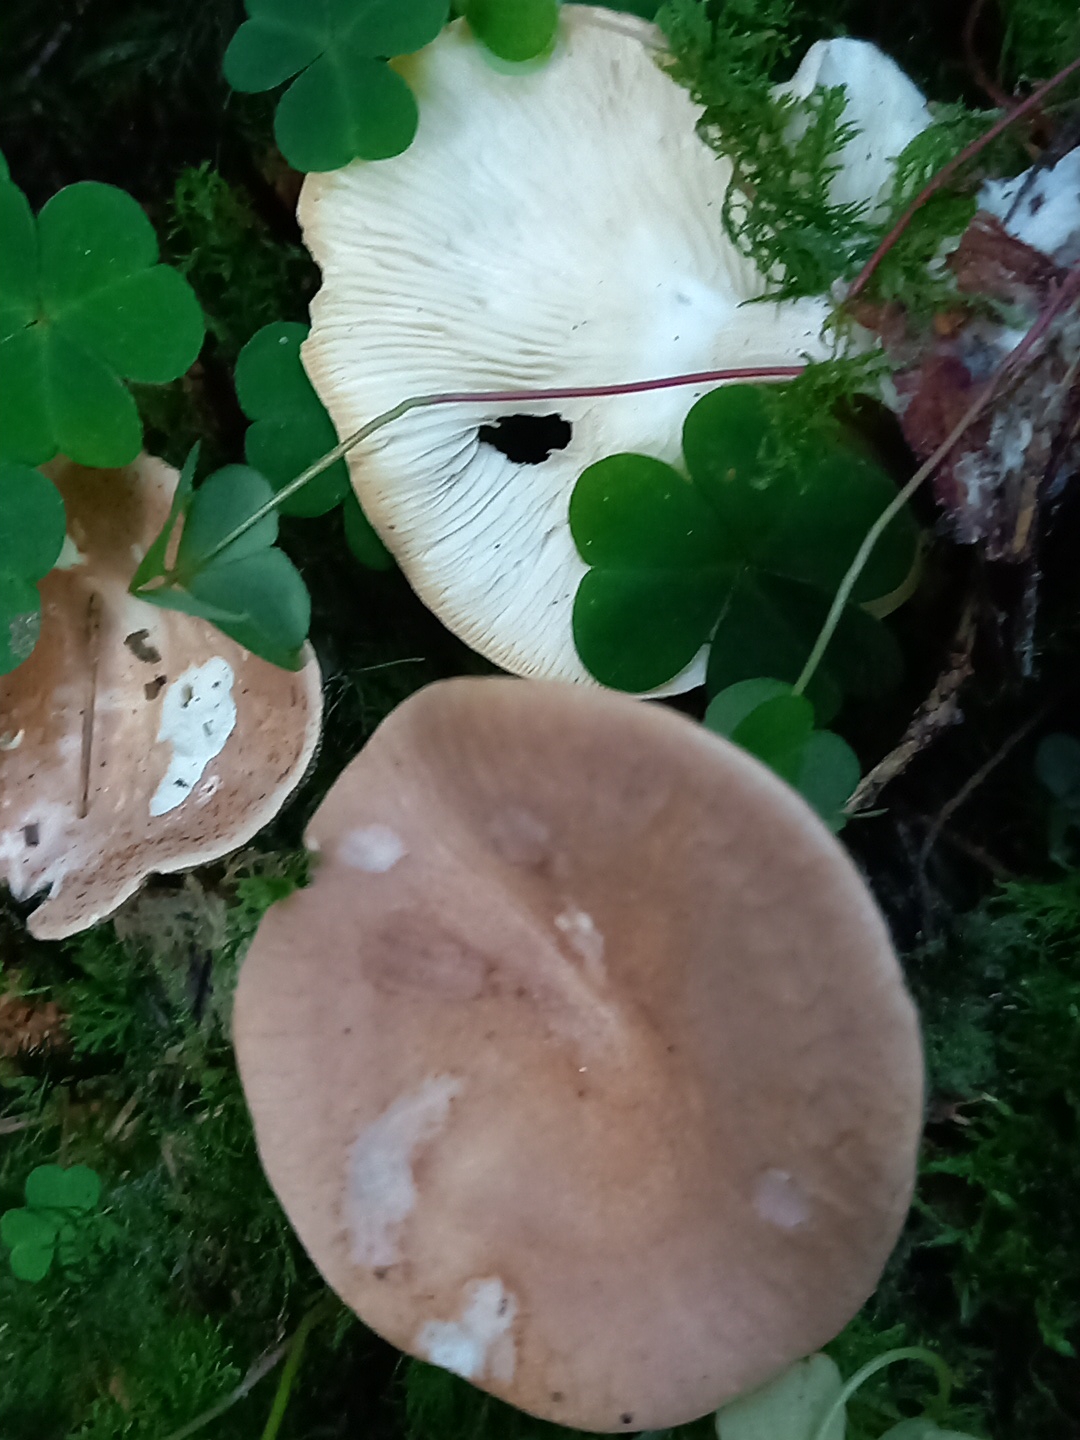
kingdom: Fungi
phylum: Basidiomycota
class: Agaricomycetes
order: Agaricales
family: Tricholomataceae
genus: Infundibulicybe
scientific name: Infundibulicybe gibba
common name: almindelig tragthat
